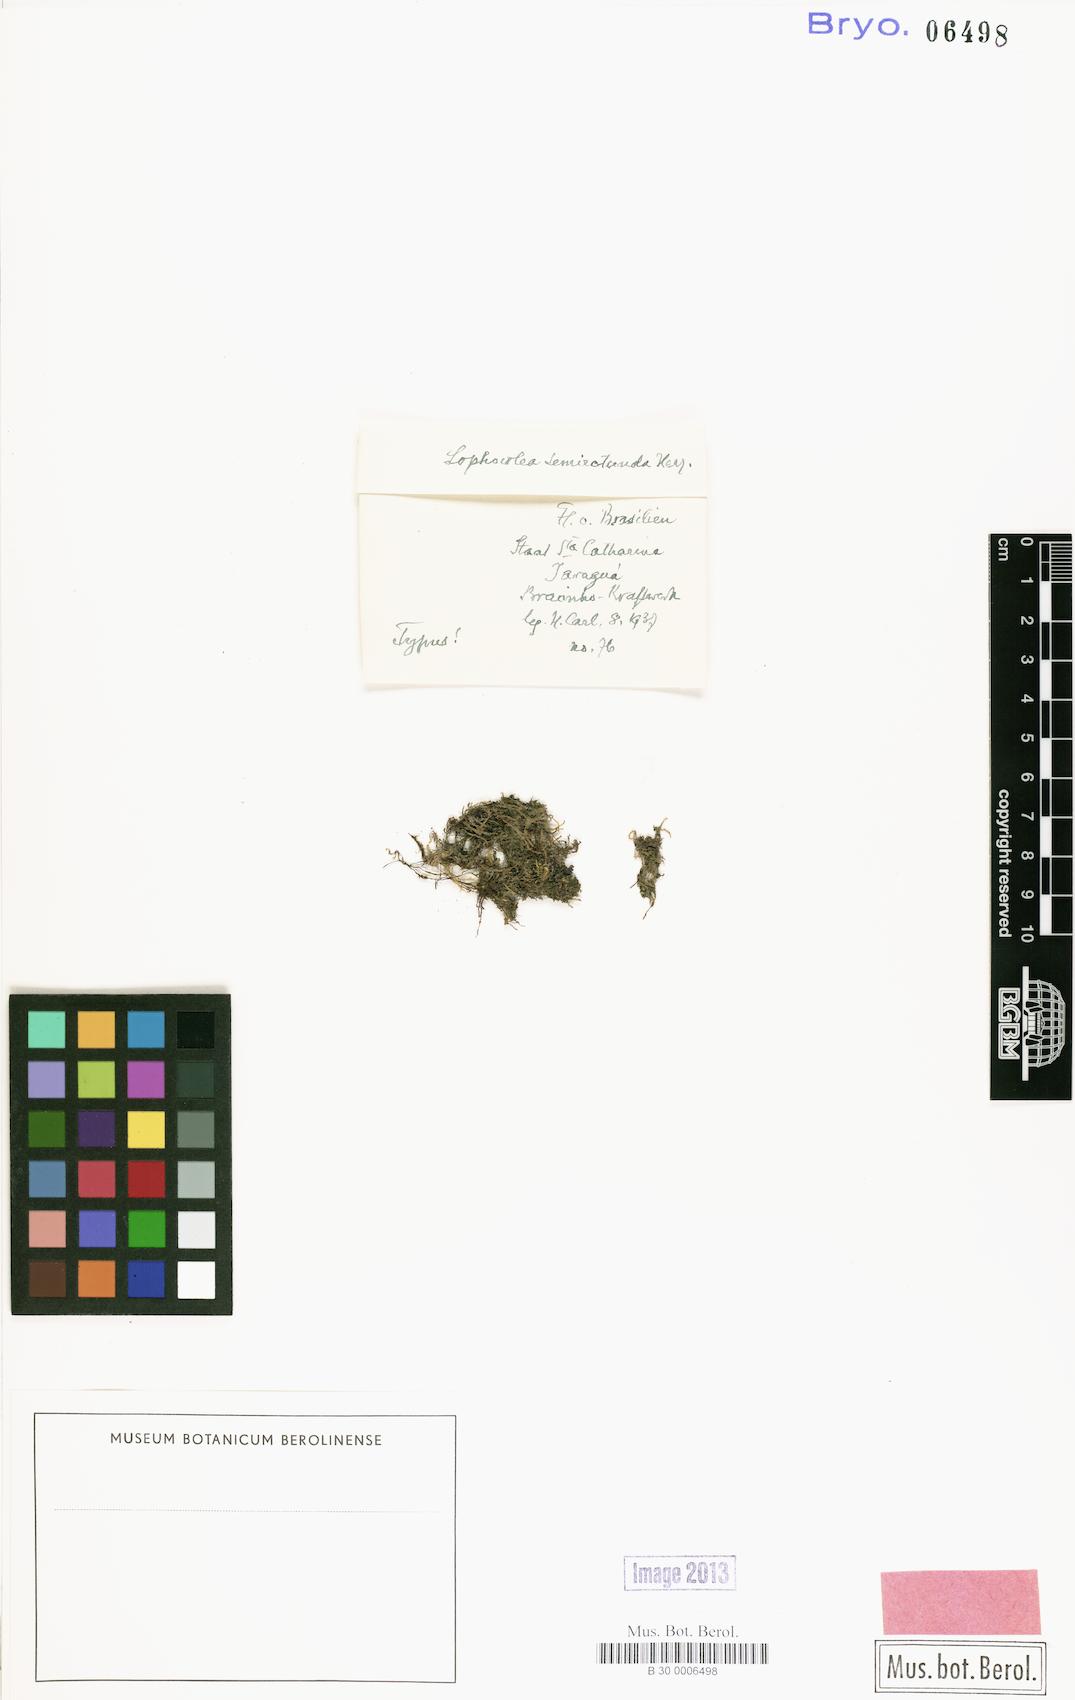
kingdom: Plantae
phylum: Marchantiophyta
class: Jungermanniopsida
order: Jungermanniales
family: Lophocoleaceae
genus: Lophocolea
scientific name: Lophocolea
